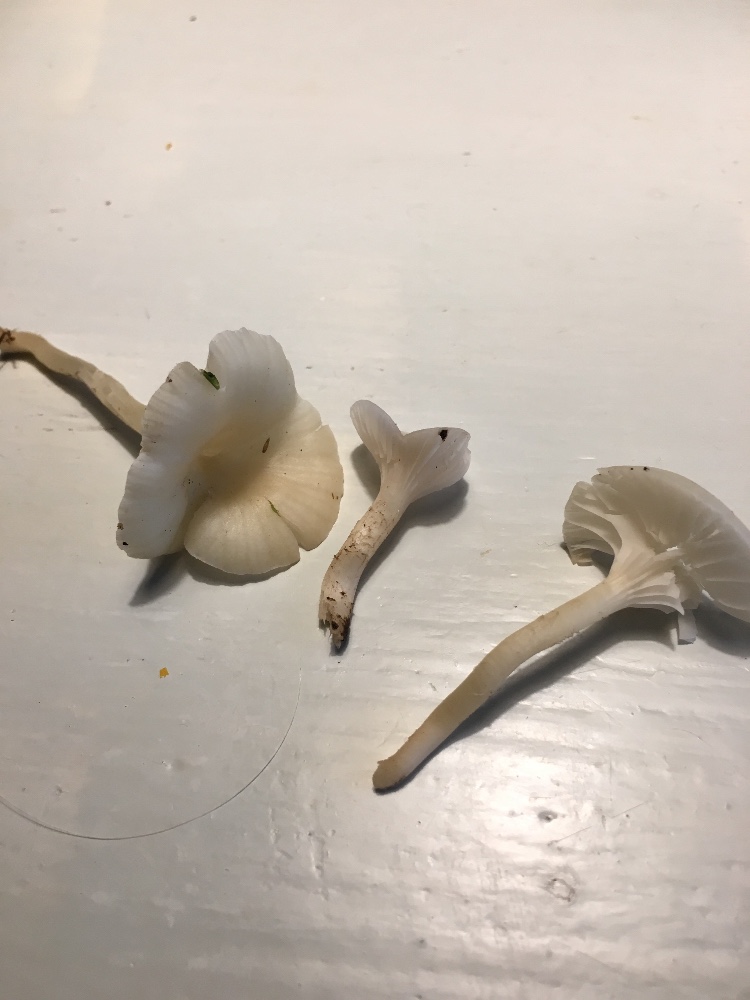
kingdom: Fungi
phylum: Basidiomycota
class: Agaricomycetes
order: Agaricales
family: Hygrophoraceae
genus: Cuphophyllus
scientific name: Cuphophyllus russocoriaceus
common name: ruslæder-vokshat
